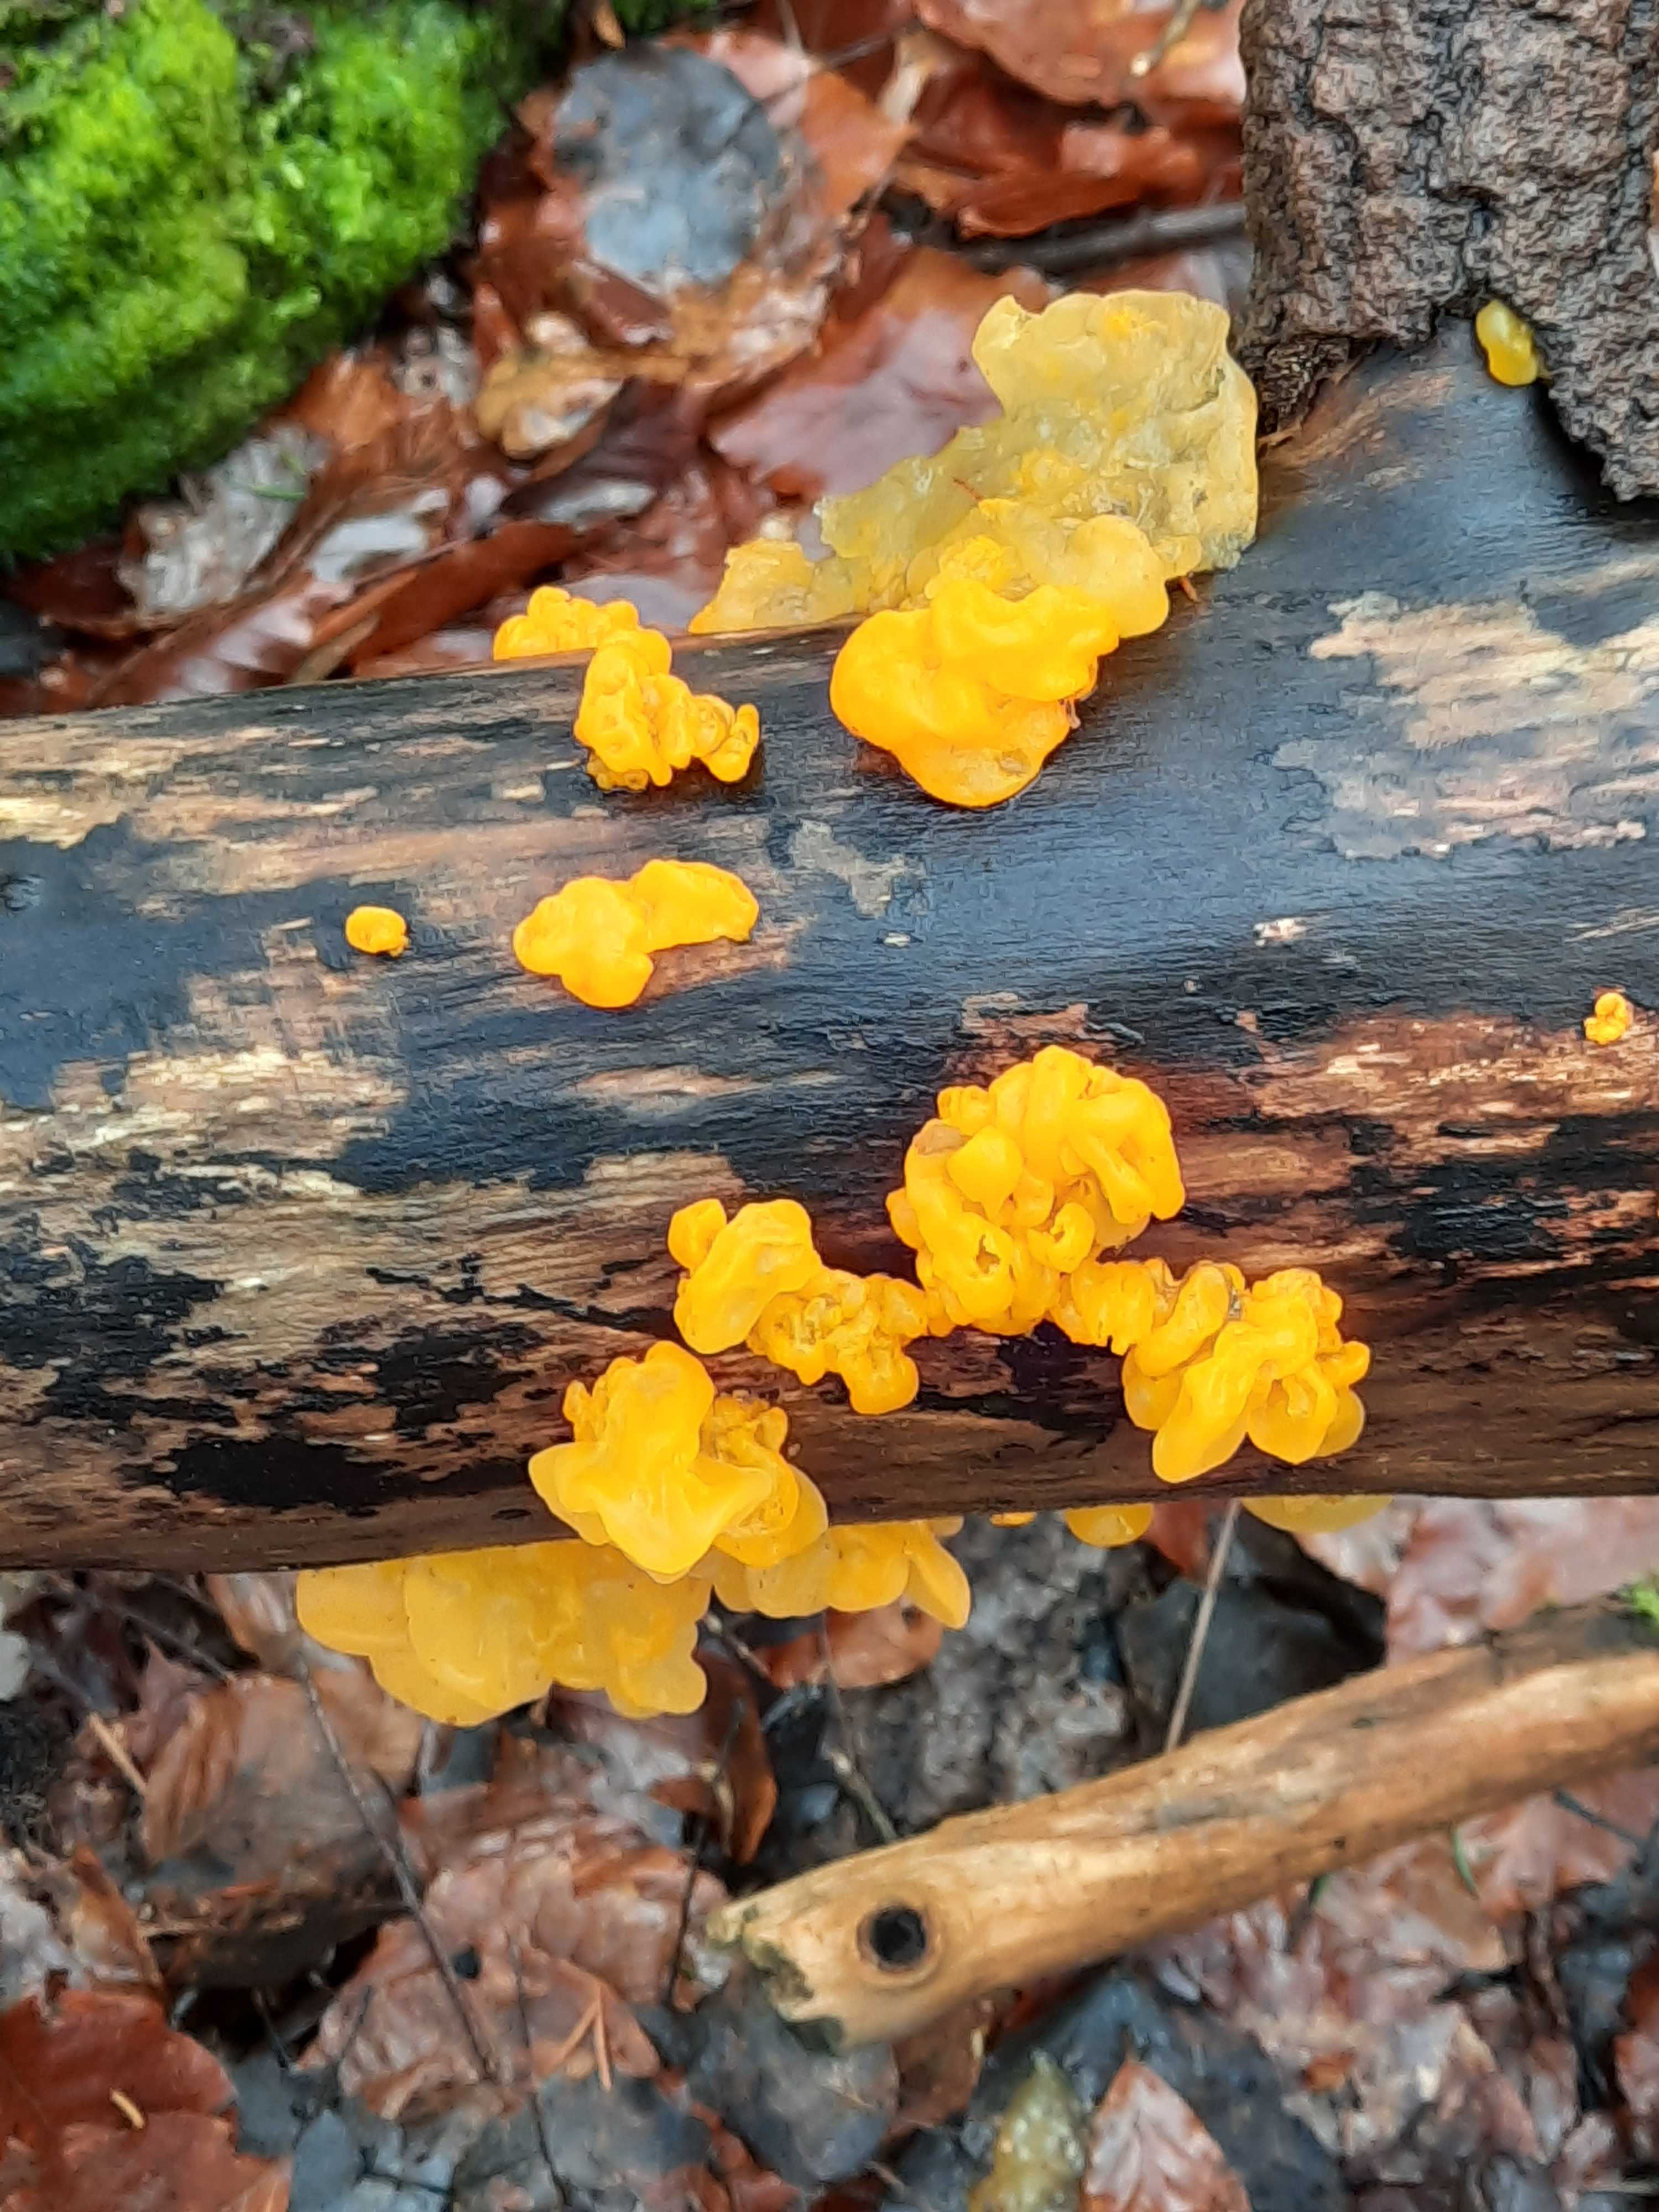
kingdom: Fungi
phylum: Basidiomycota
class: Tremellomycetes
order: Tremellales
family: Tremellaceae
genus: Tremella
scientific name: Tremella mesenterica
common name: gul bævresvamp
